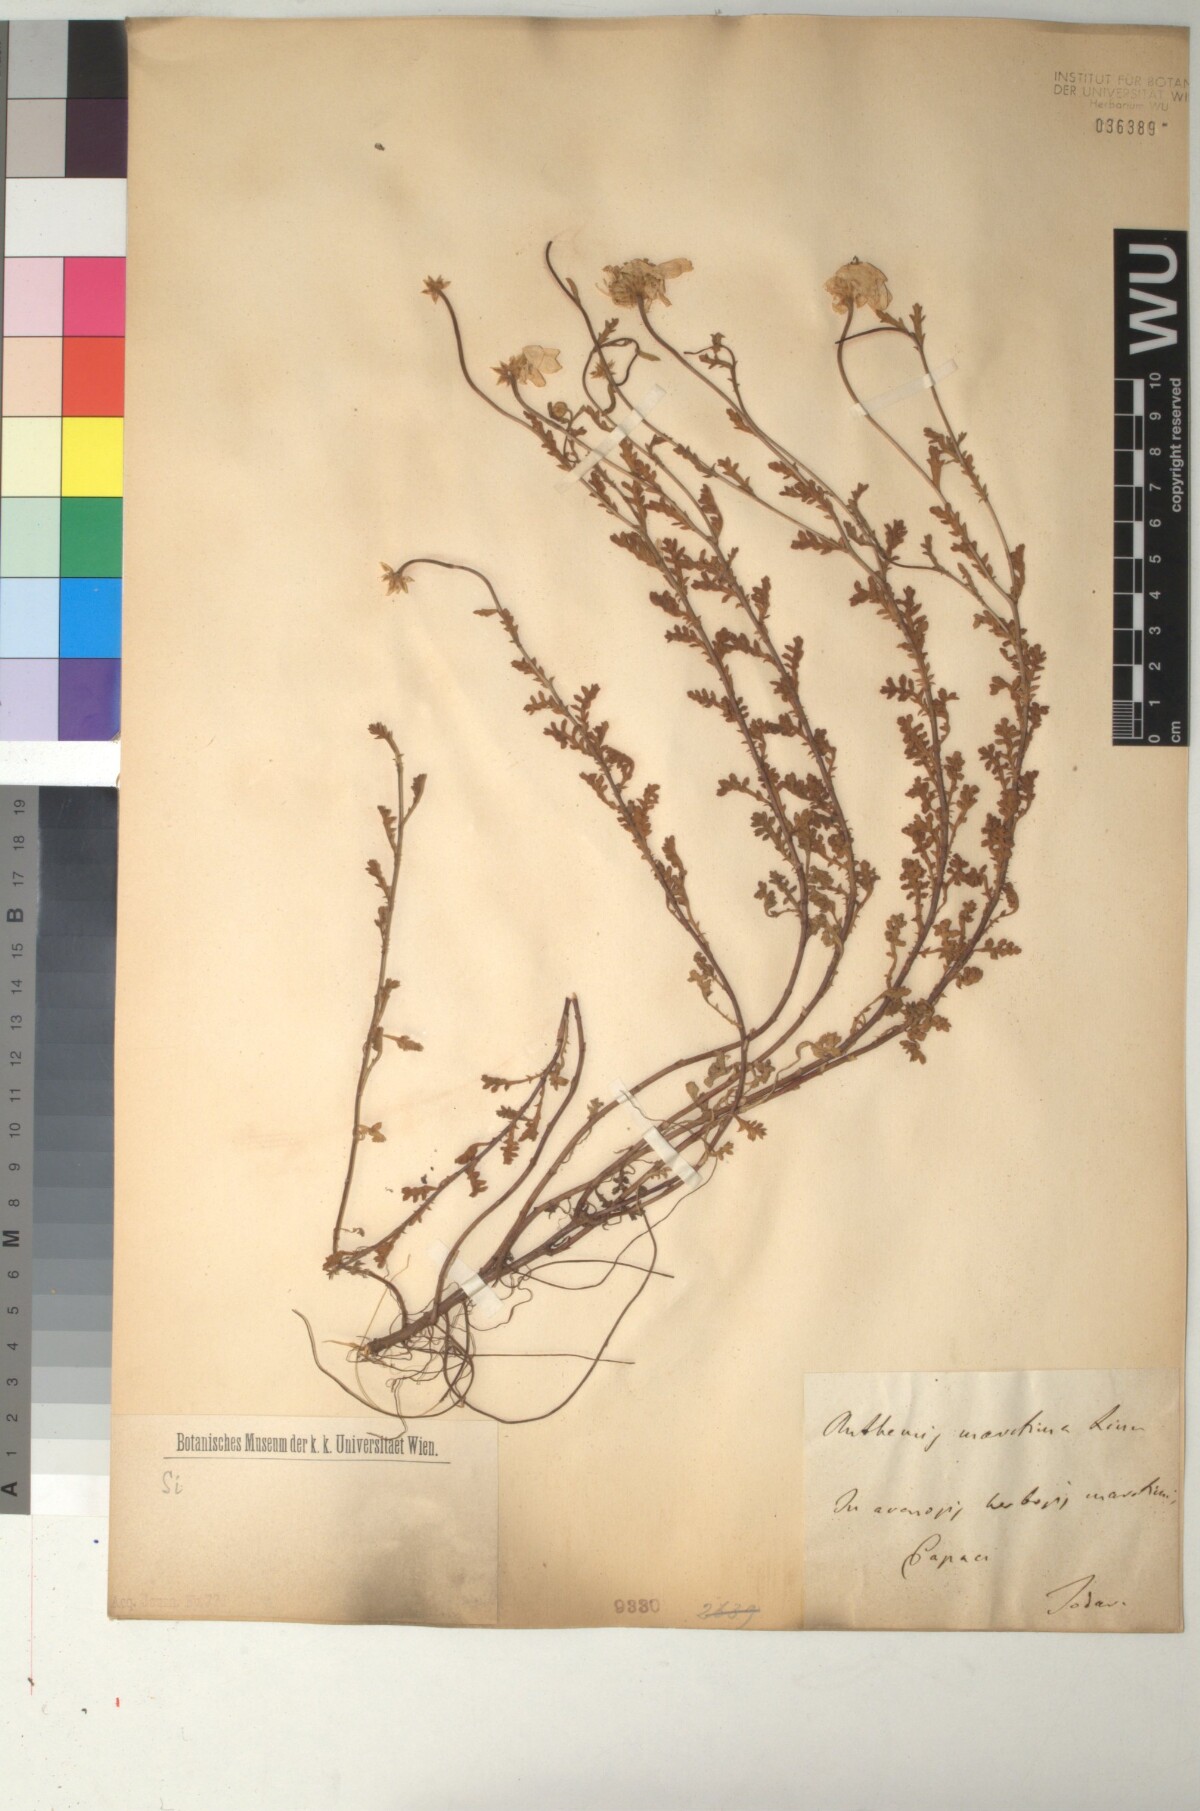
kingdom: Plantae
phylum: Tracheophyta
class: Magnoliopsida
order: Asterales
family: Asteraceae
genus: Anthemis
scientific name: Anthemis maritima
